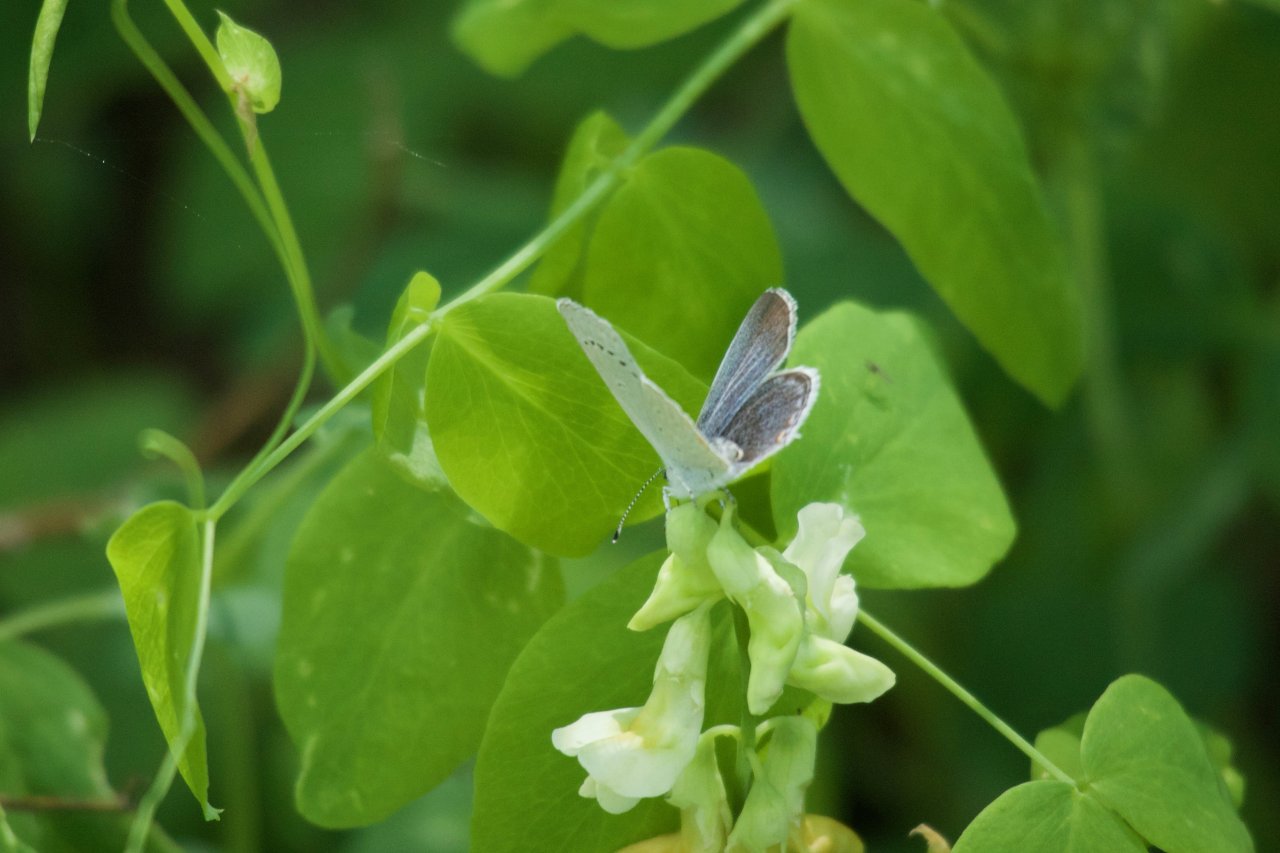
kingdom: Animalia
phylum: Arthropoda
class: Insecta
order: Lepidoptera
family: Lycaenidae
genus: Elkalyce
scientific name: Elkalyce amyntula
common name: Western Tailed-Blue
